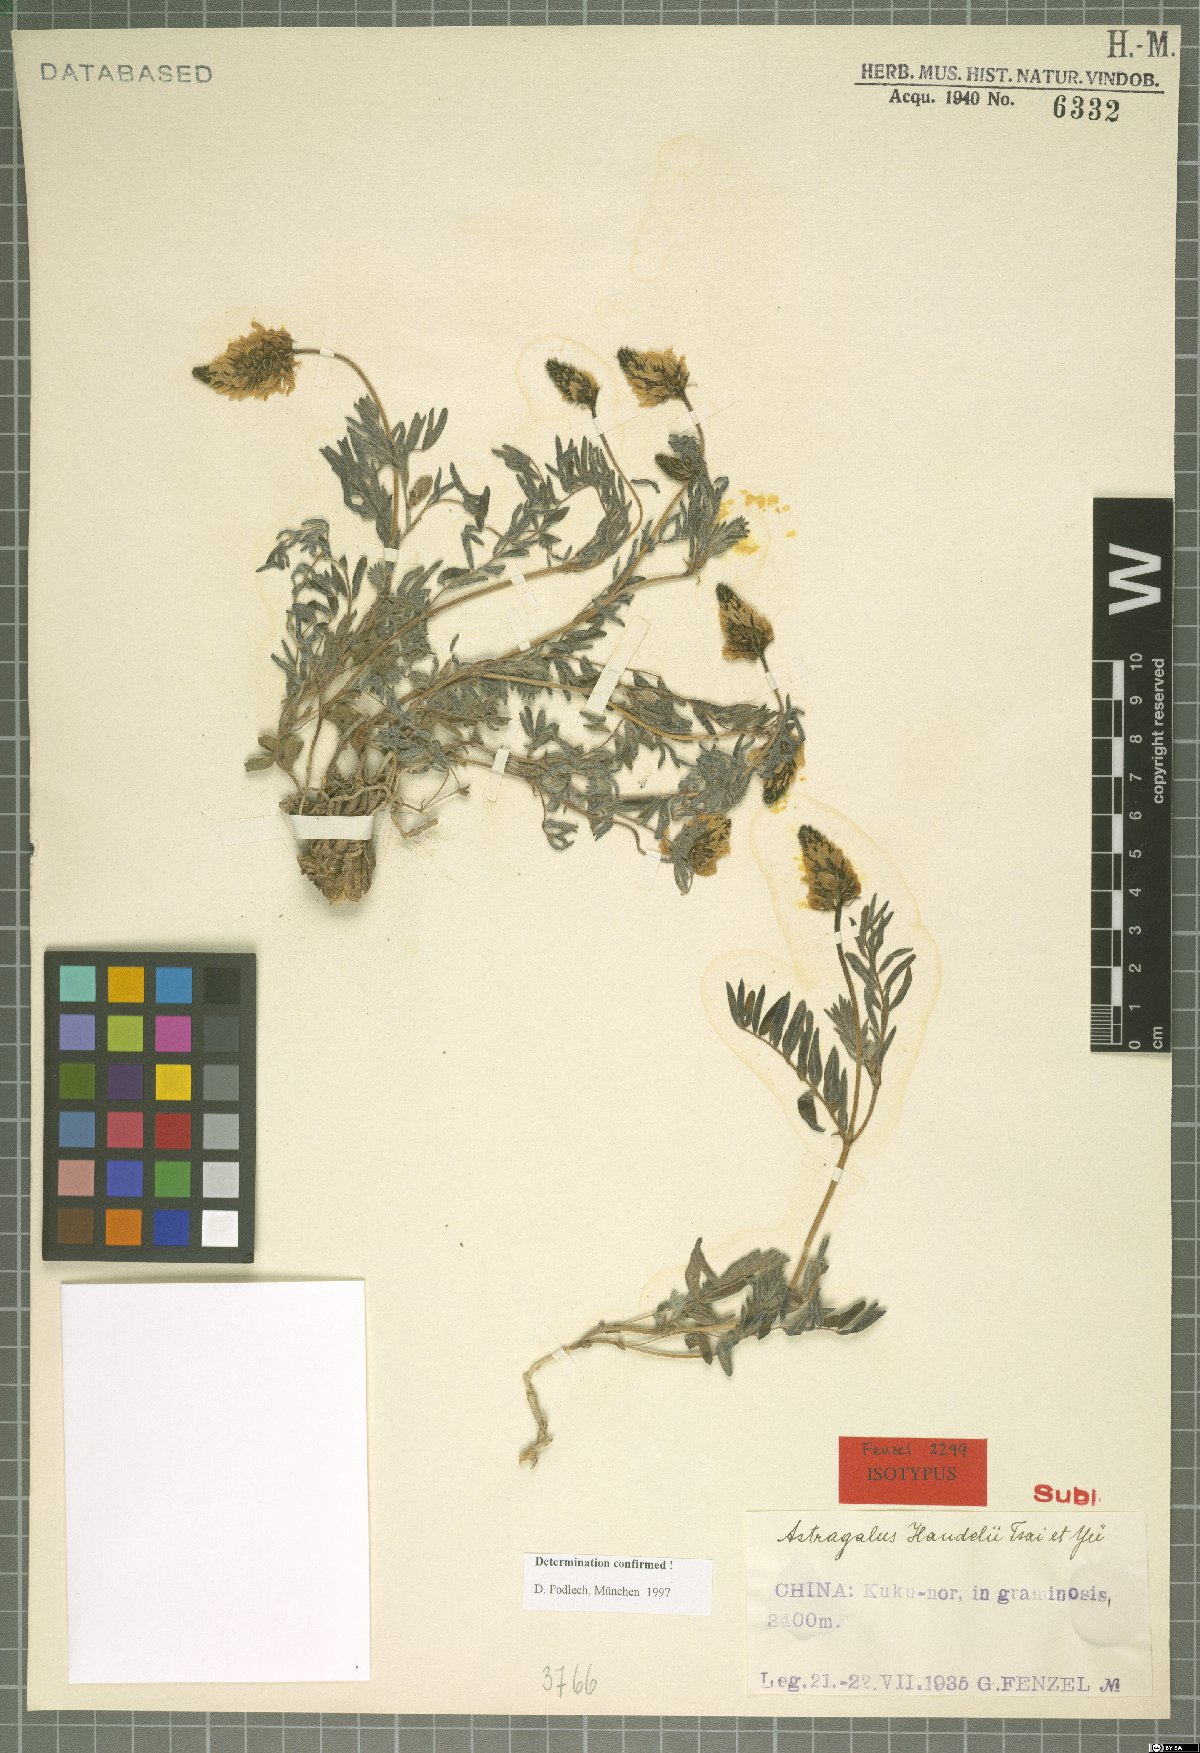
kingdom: Plantae
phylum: Tracheophyta
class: Magnoliopsida
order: Fabales
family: Fabaceae
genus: Astragalus
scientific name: Astragalus handelii
